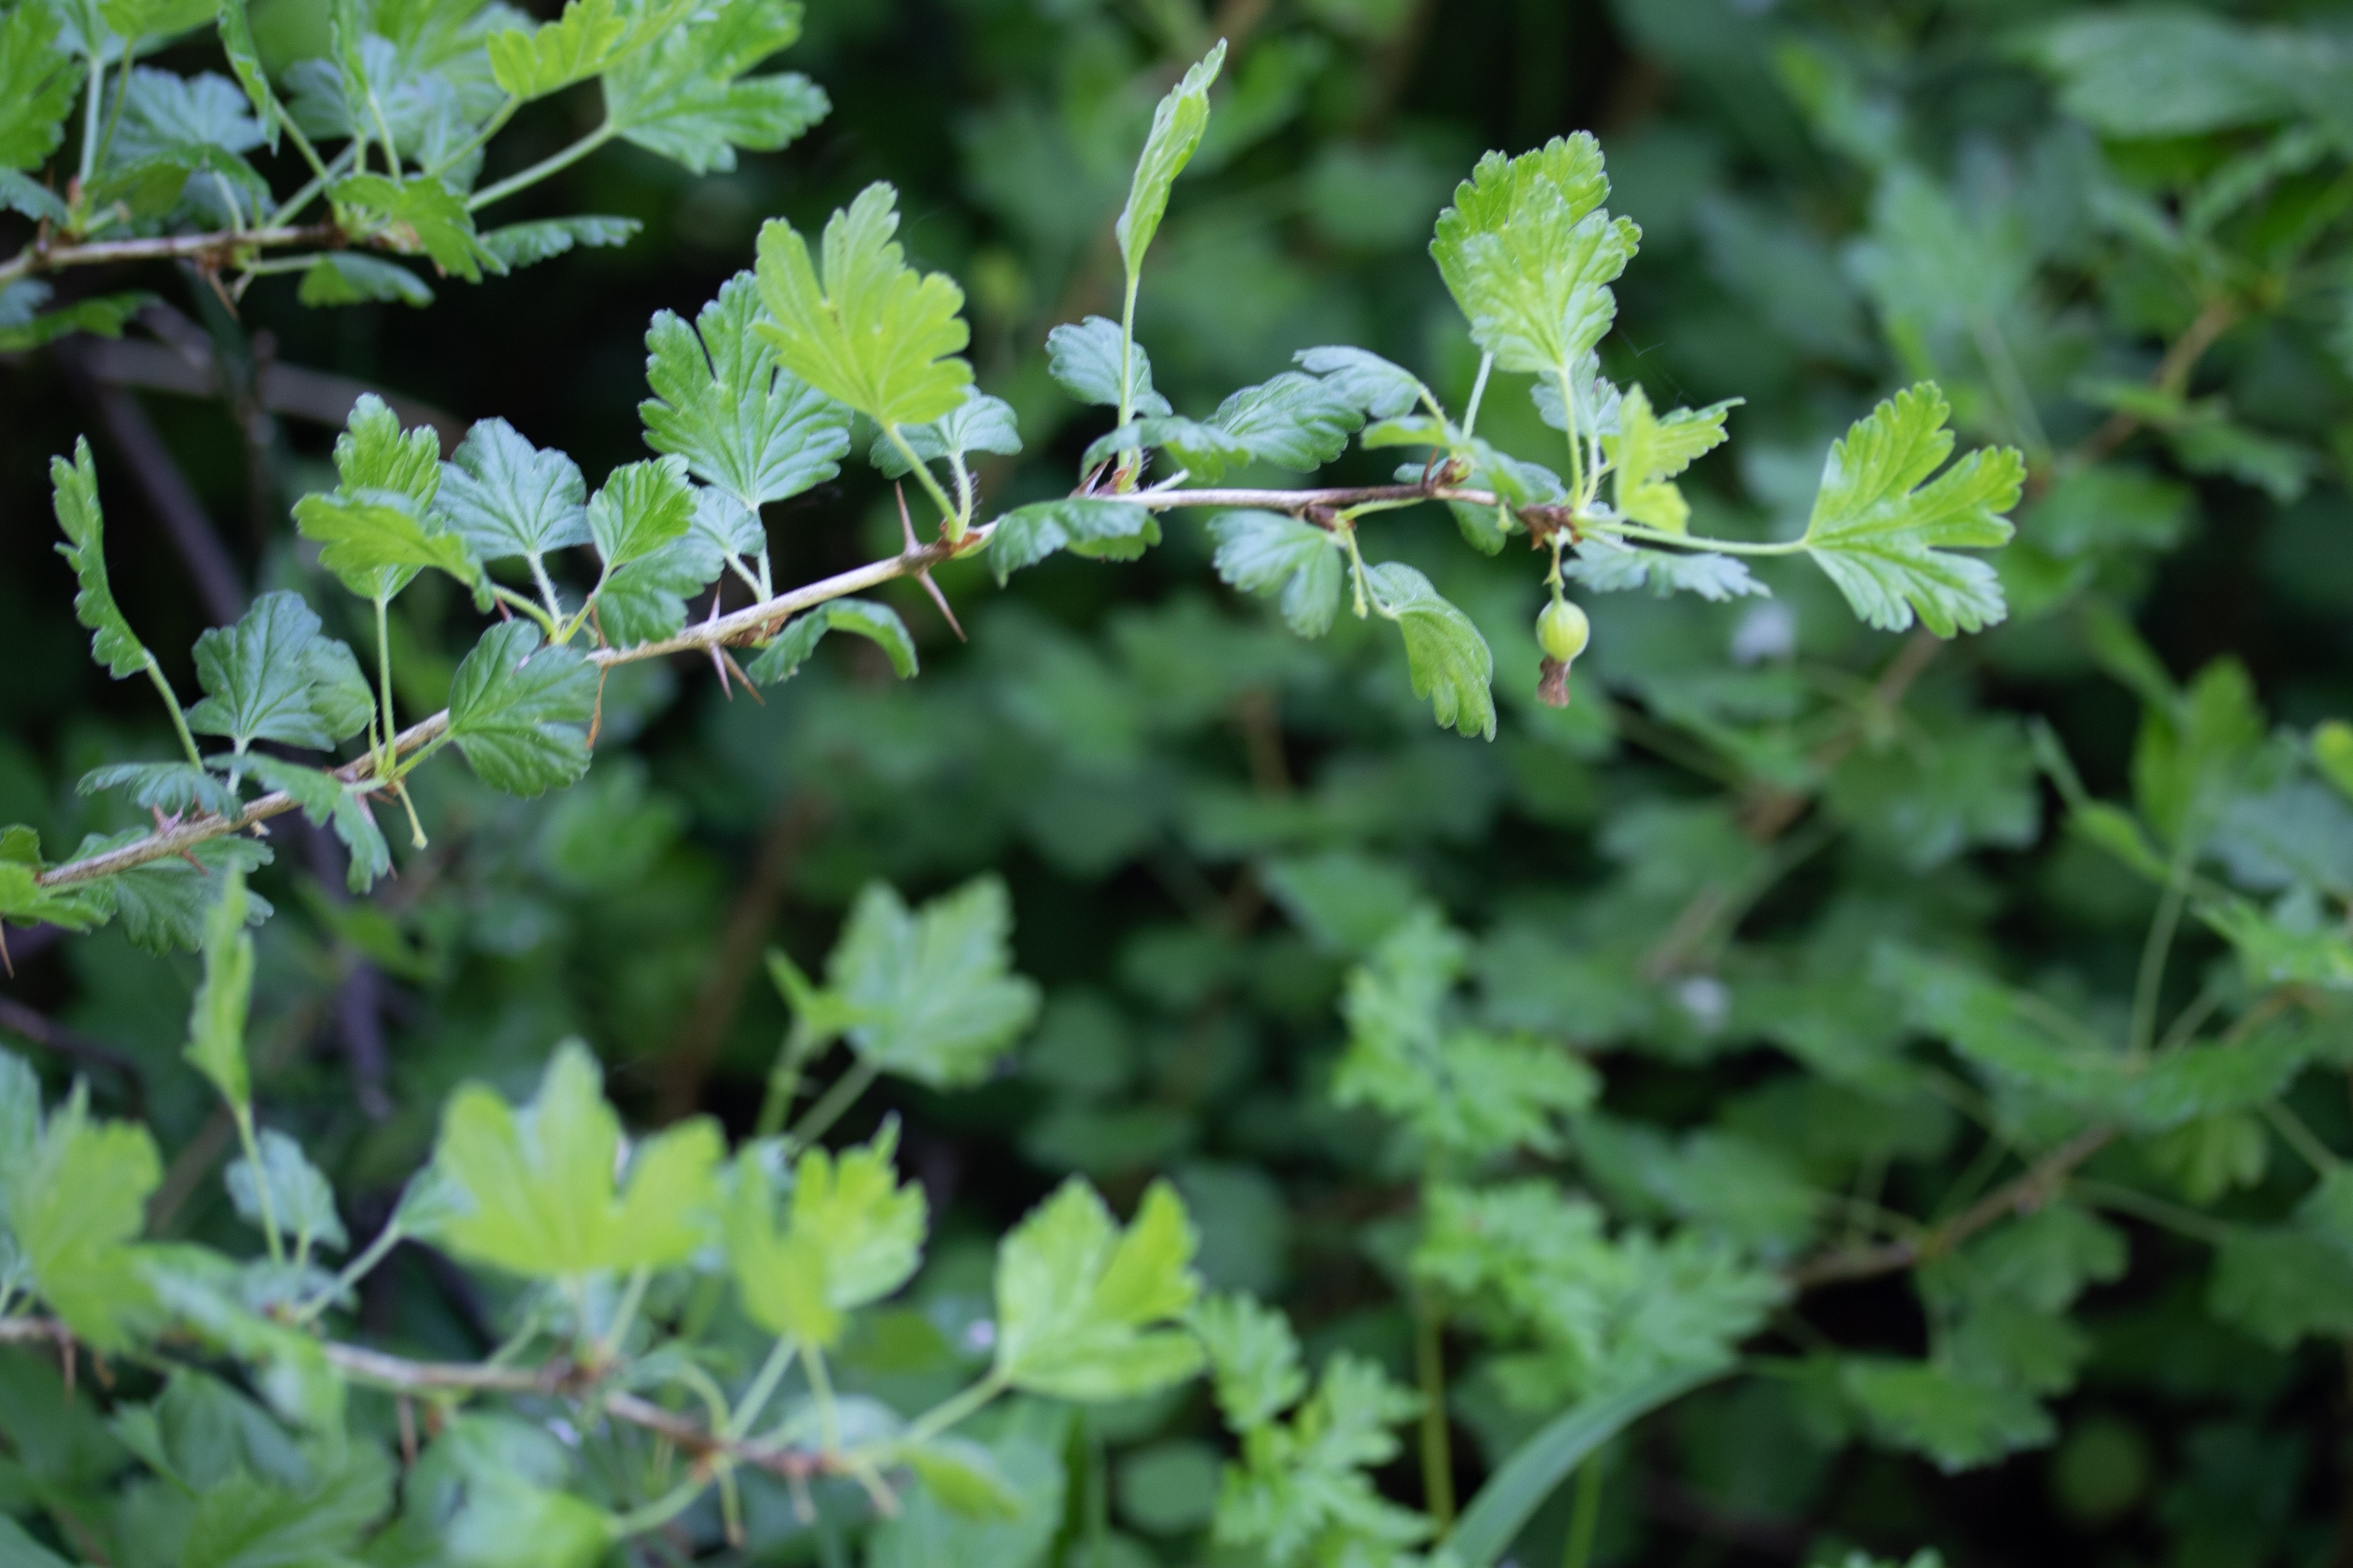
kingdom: Plantae
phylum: Tracheophyta
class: Magnoliopsida
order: Saxifragales
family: Grossulariaceae
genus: Ribes
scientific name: Ribes uva-crispa
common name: Stikkelsbær
